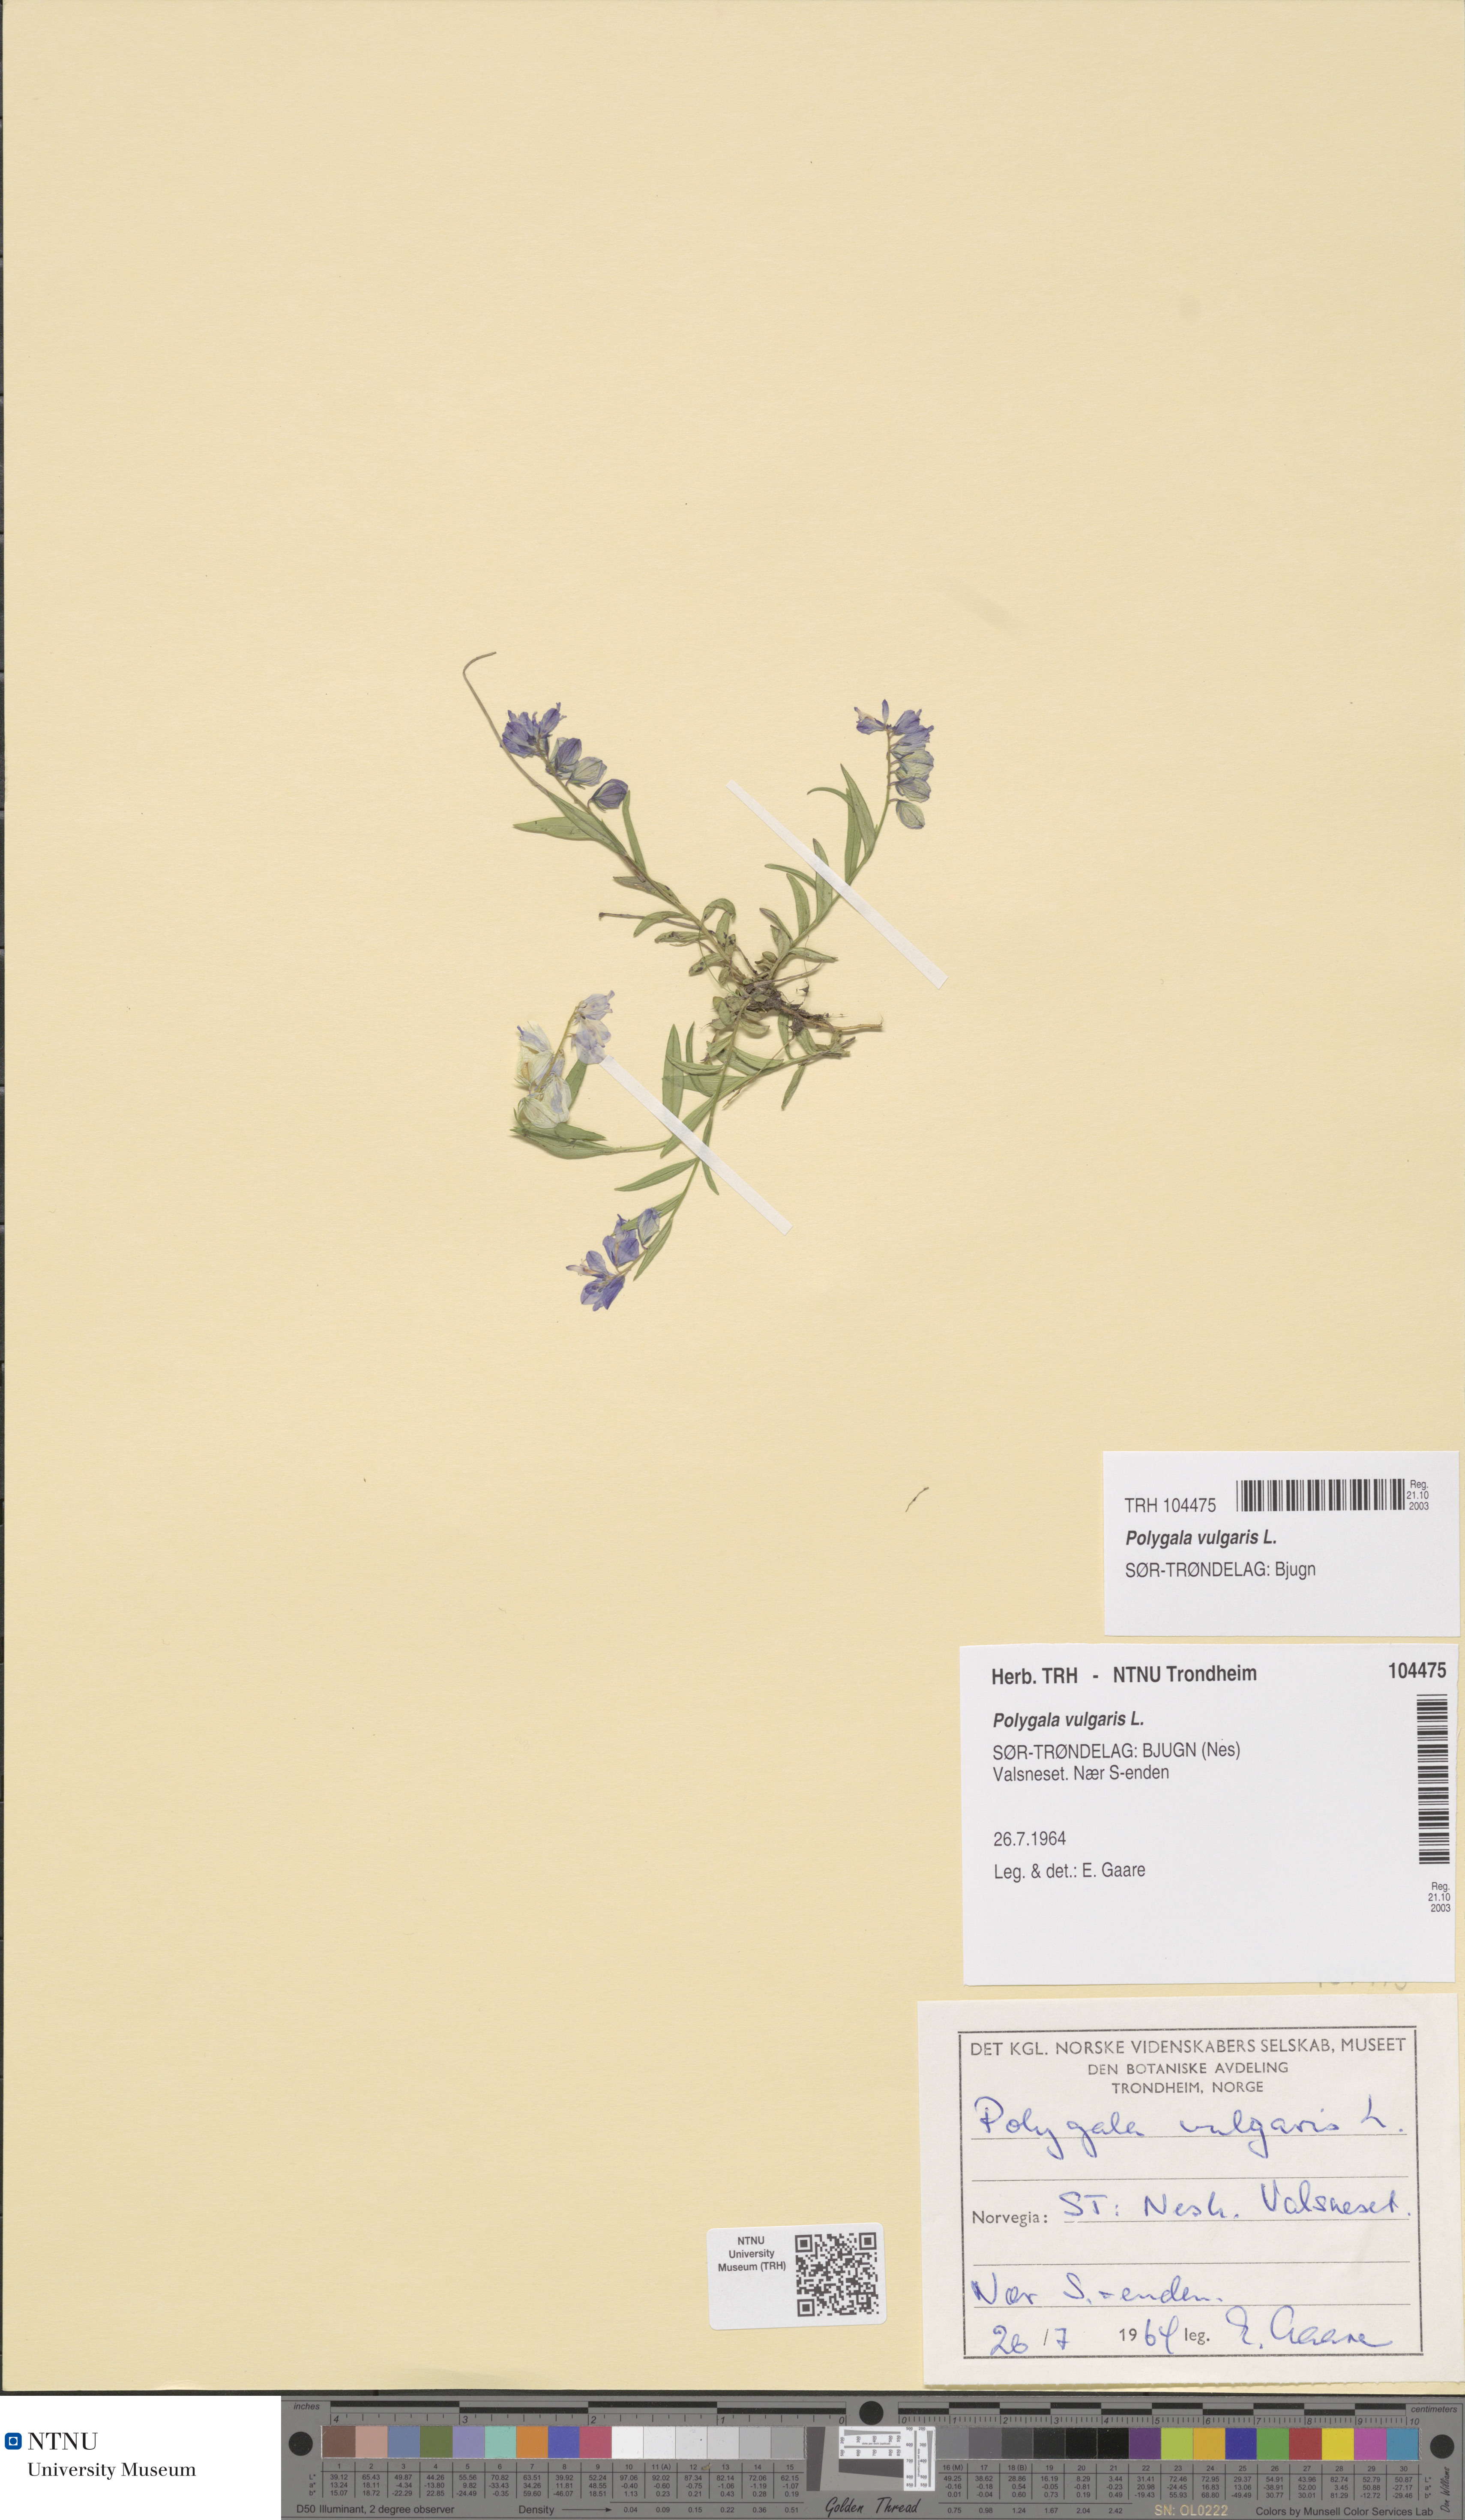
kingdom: Plantae
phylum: Tracheophyta
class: Magnoliopsida
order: Fabales
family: Polygalaceae
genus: Polygala
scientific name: Polygala vulgaris
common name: Common milkwort
